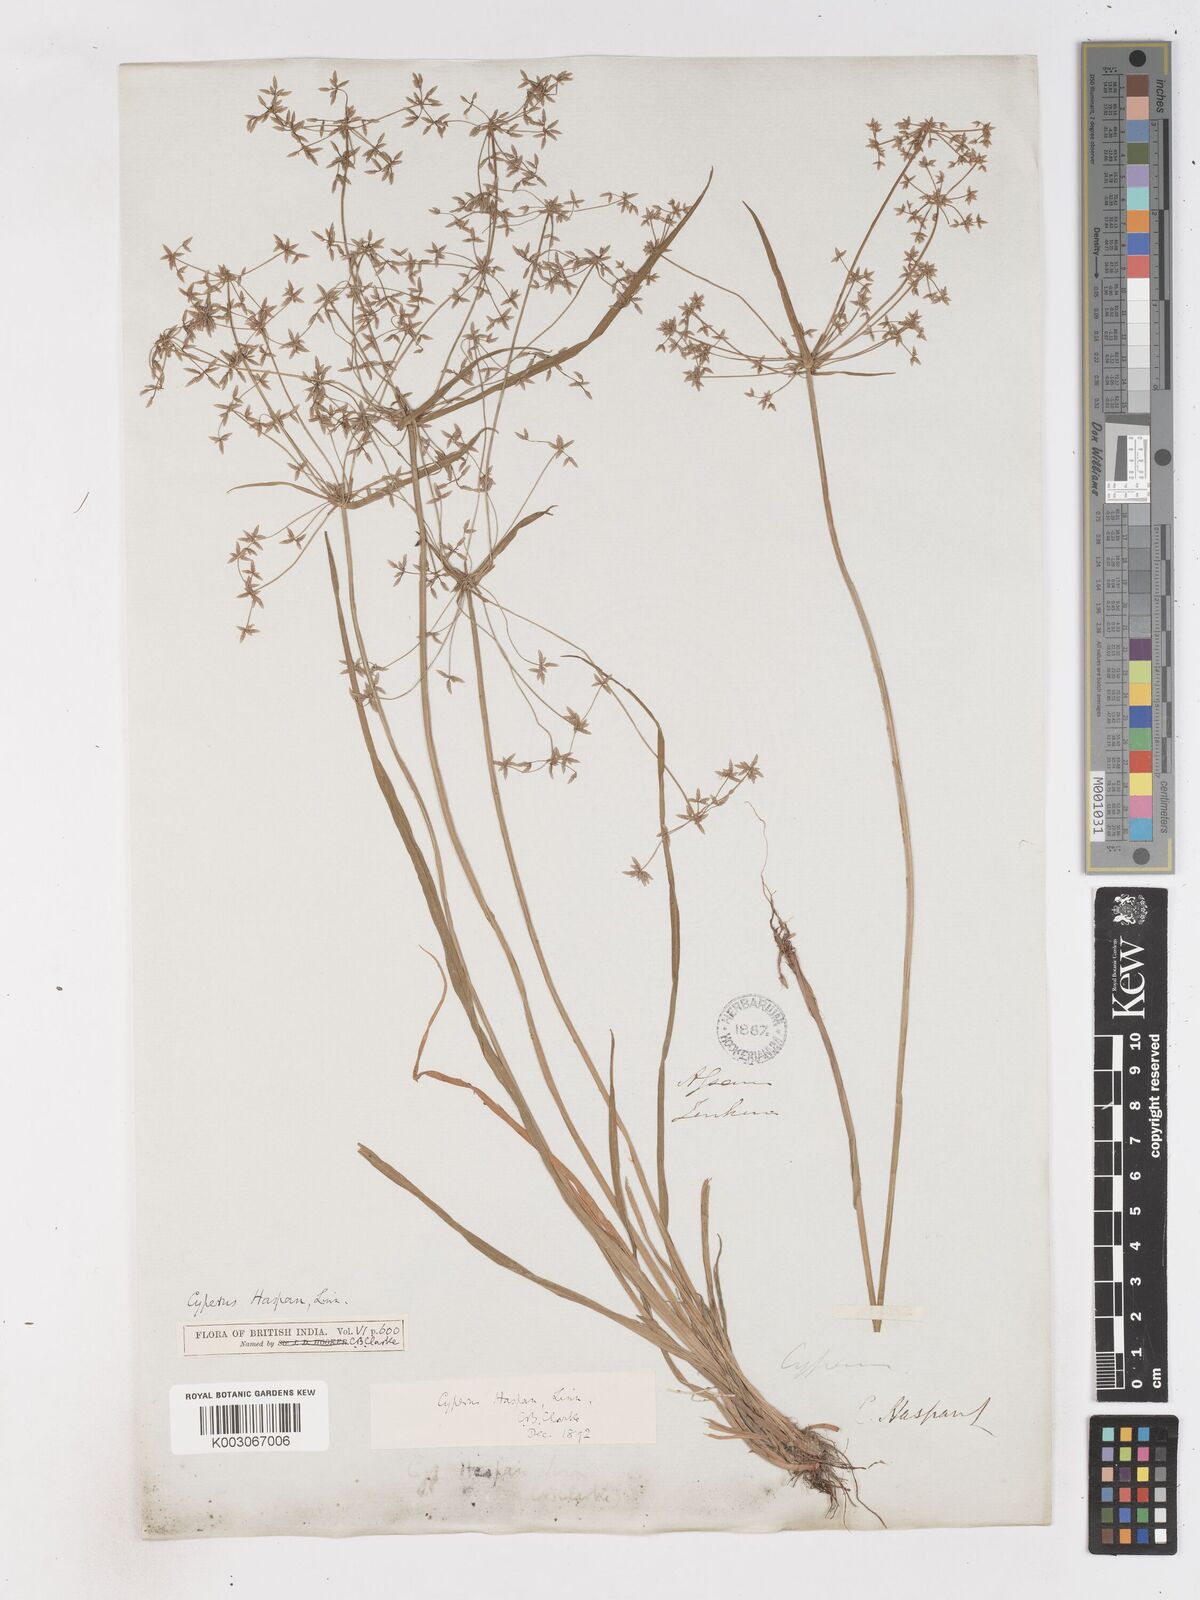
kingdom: Plantae
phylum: Tracheophyta
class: Liliopsida
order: Poales
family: Cyperaceae
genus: Cyperus
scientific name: Cyperus haspan
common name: Haspan flatsedge
